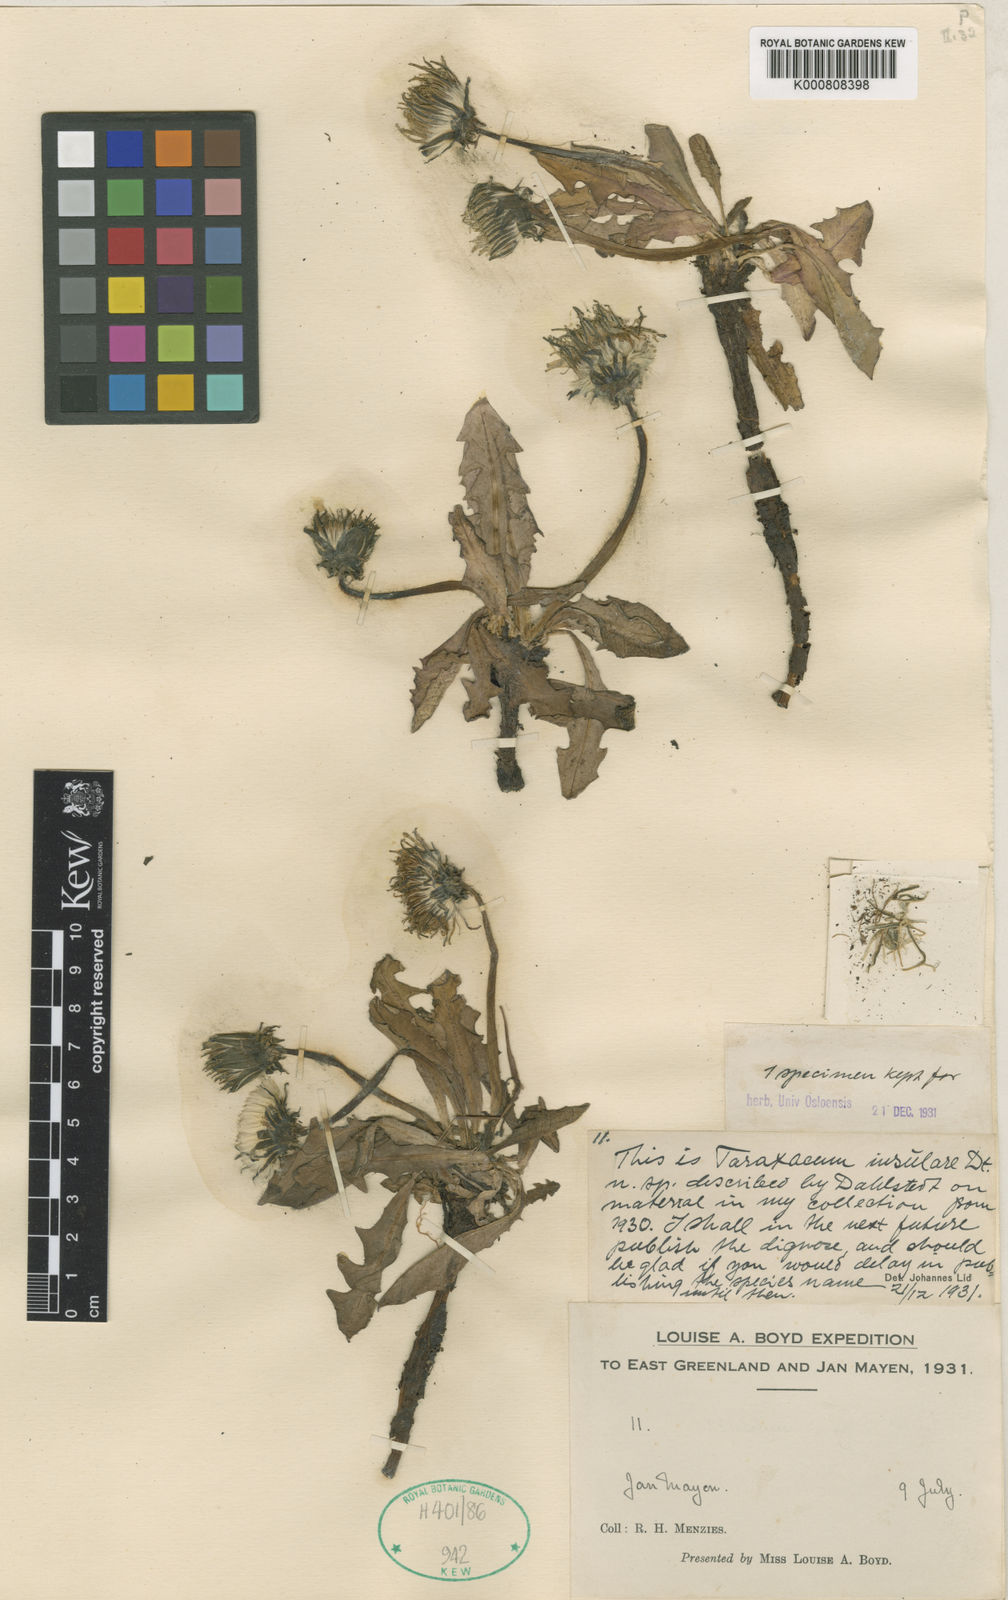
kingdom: Plantae
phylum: Tracheophyta
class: Magnoliopsida
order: Asterales
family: Asteraceae
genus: Taraxacum
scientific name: Taraxacum
